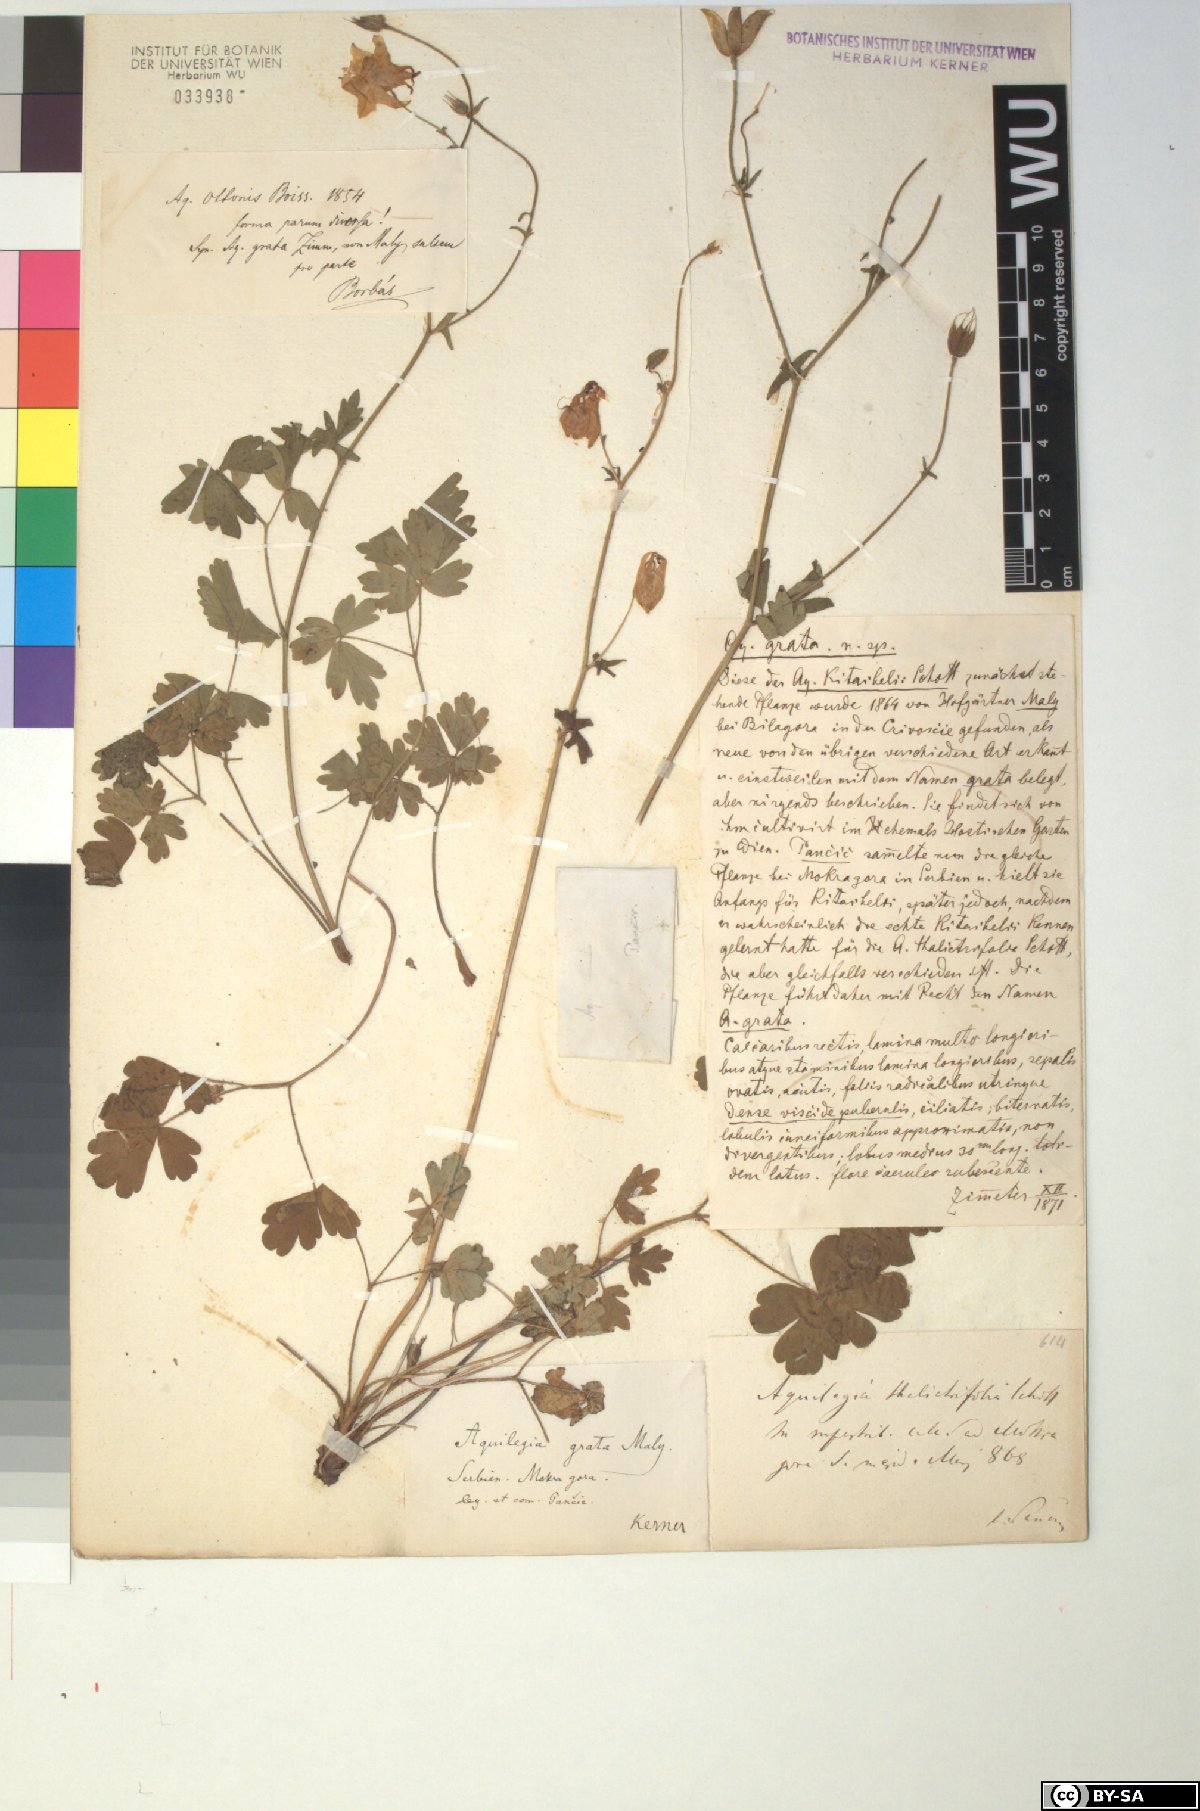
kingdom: Plantae
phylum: Tracheophyta
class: Magnoliopsida
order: Ranunculales
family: Ranunculaceae
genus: Aquilegia
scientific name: Aquilegia grata
